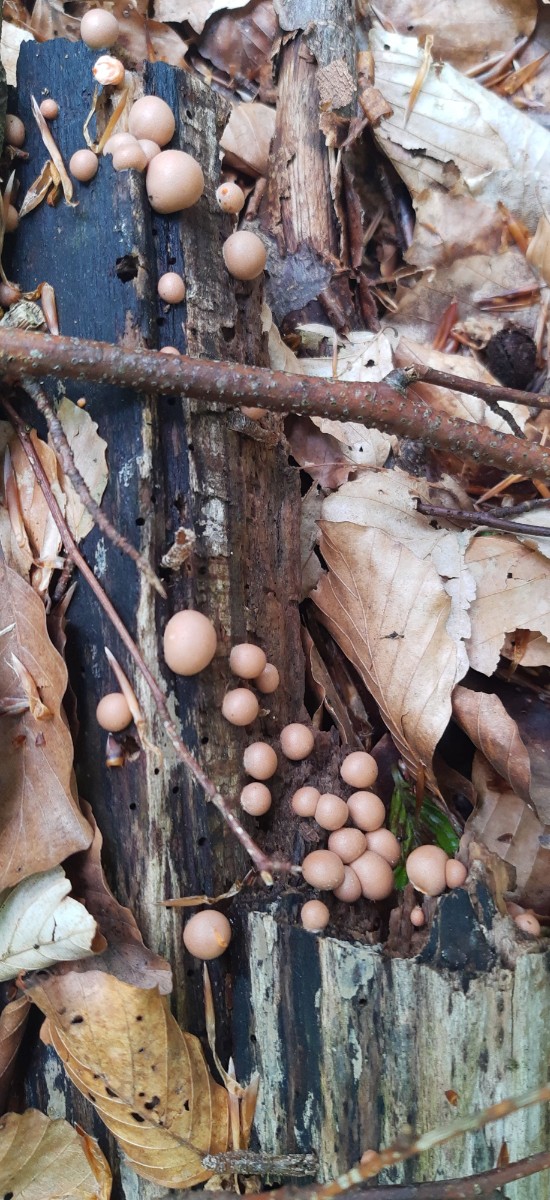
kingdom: Protozoa
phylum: Mycetozoa
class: Myxomycetes
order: Cribrariales
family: Tubiferaceae
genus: Lycogala
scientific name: Lycogala epidendrum
